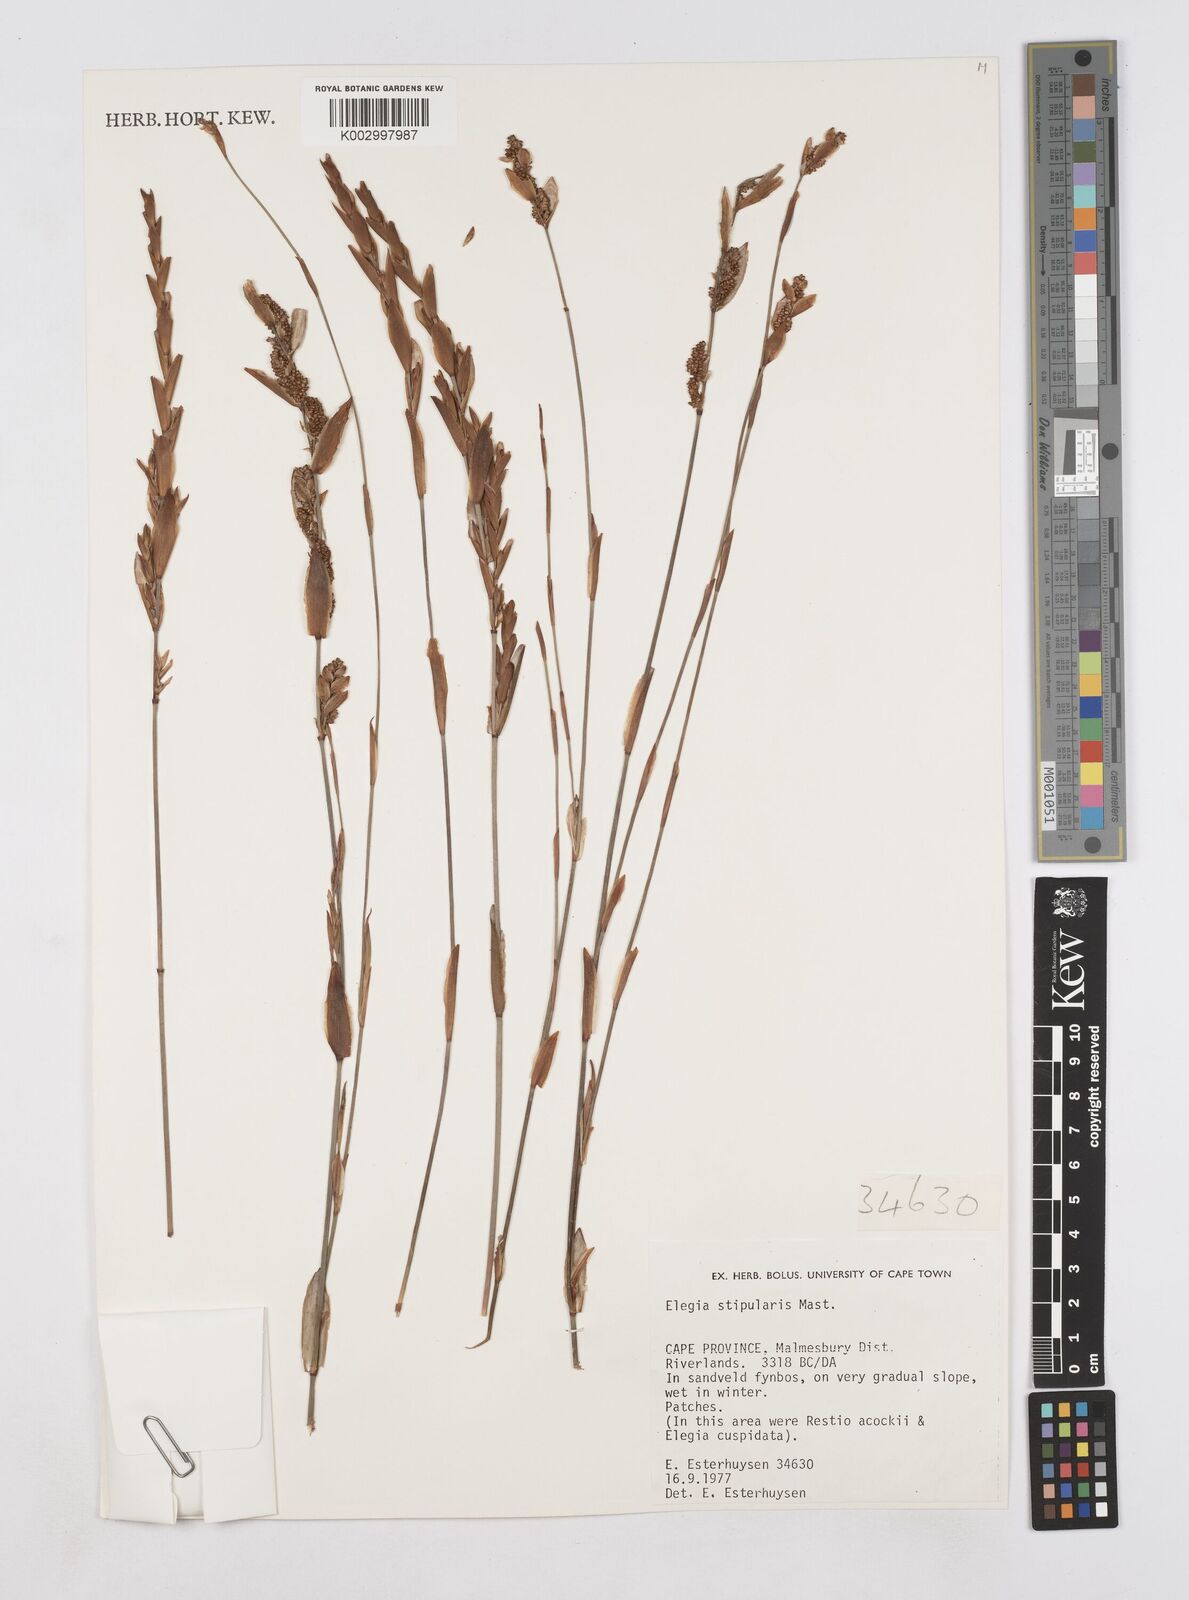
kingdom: Plantae
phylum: Tracheophyta
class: Liliopsida
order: Poales
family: Restionaceae
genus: Elegia
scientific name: Elegia stipularis
